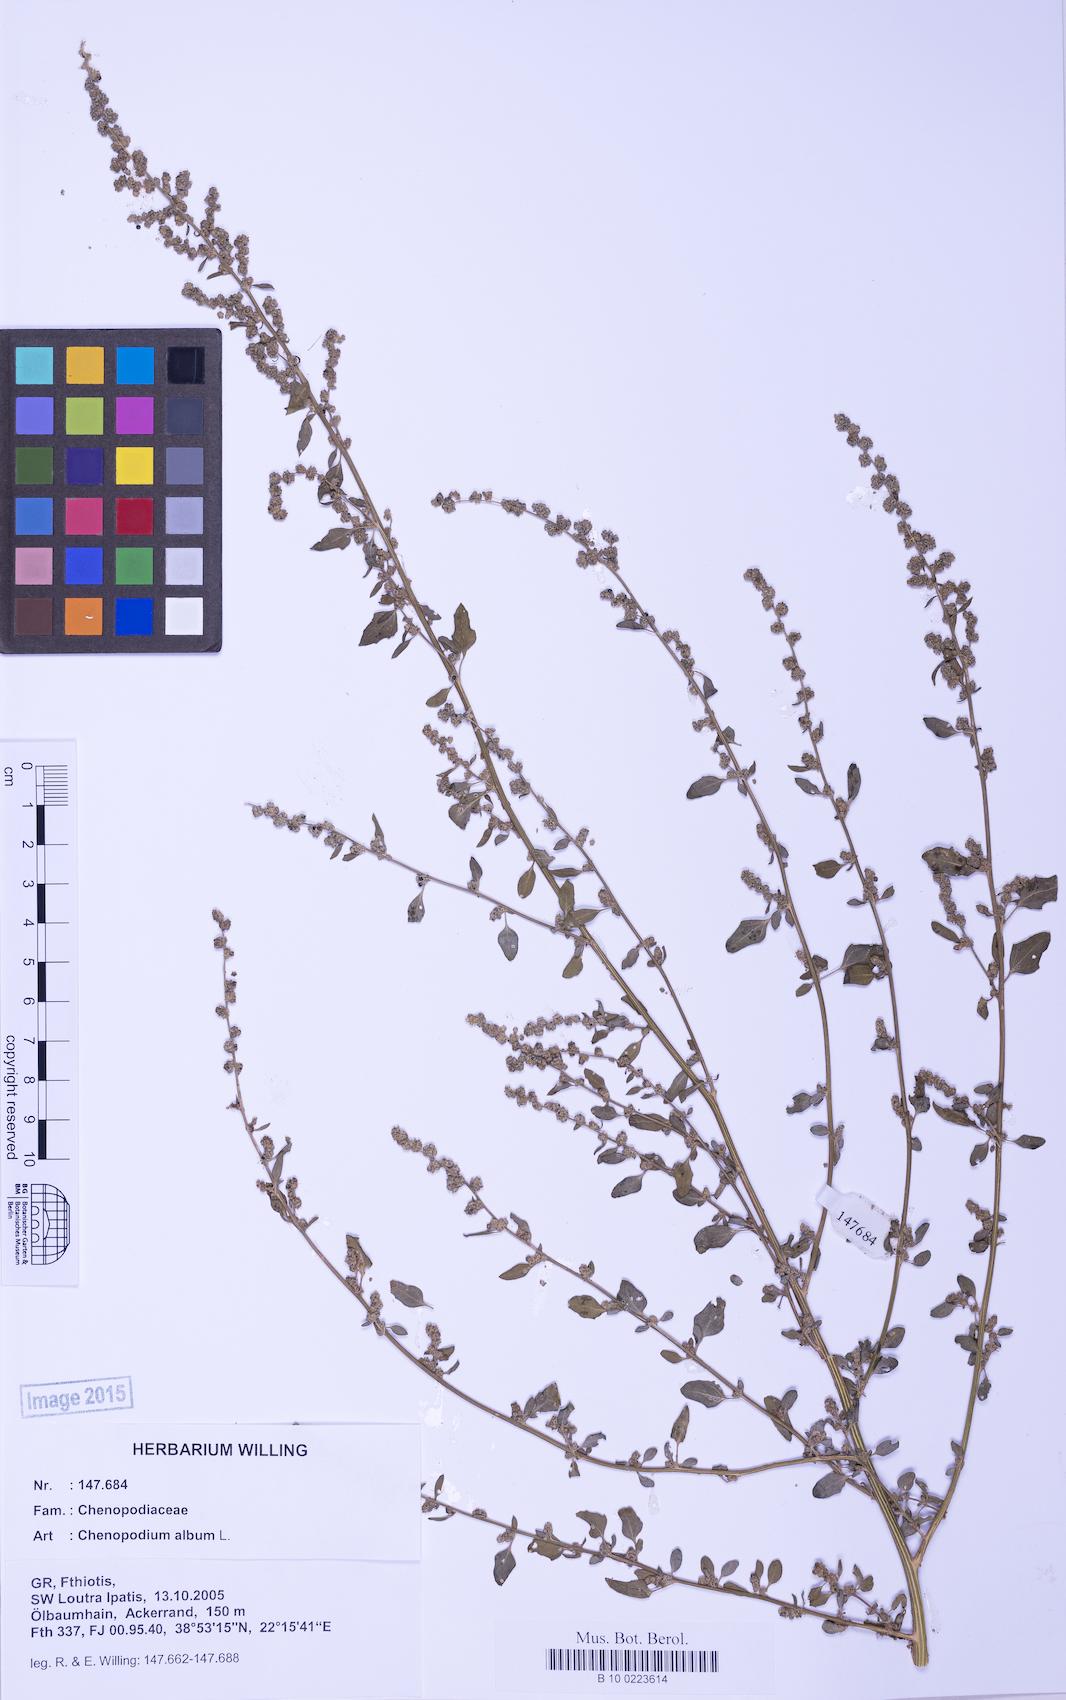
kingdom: Plantae
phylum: Tracheophyta
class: Magnoliopsida
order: Caryophyllales
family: Amaranthaceae
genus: Chenopodium
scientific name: Chenopodium album
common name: Fat-hen
